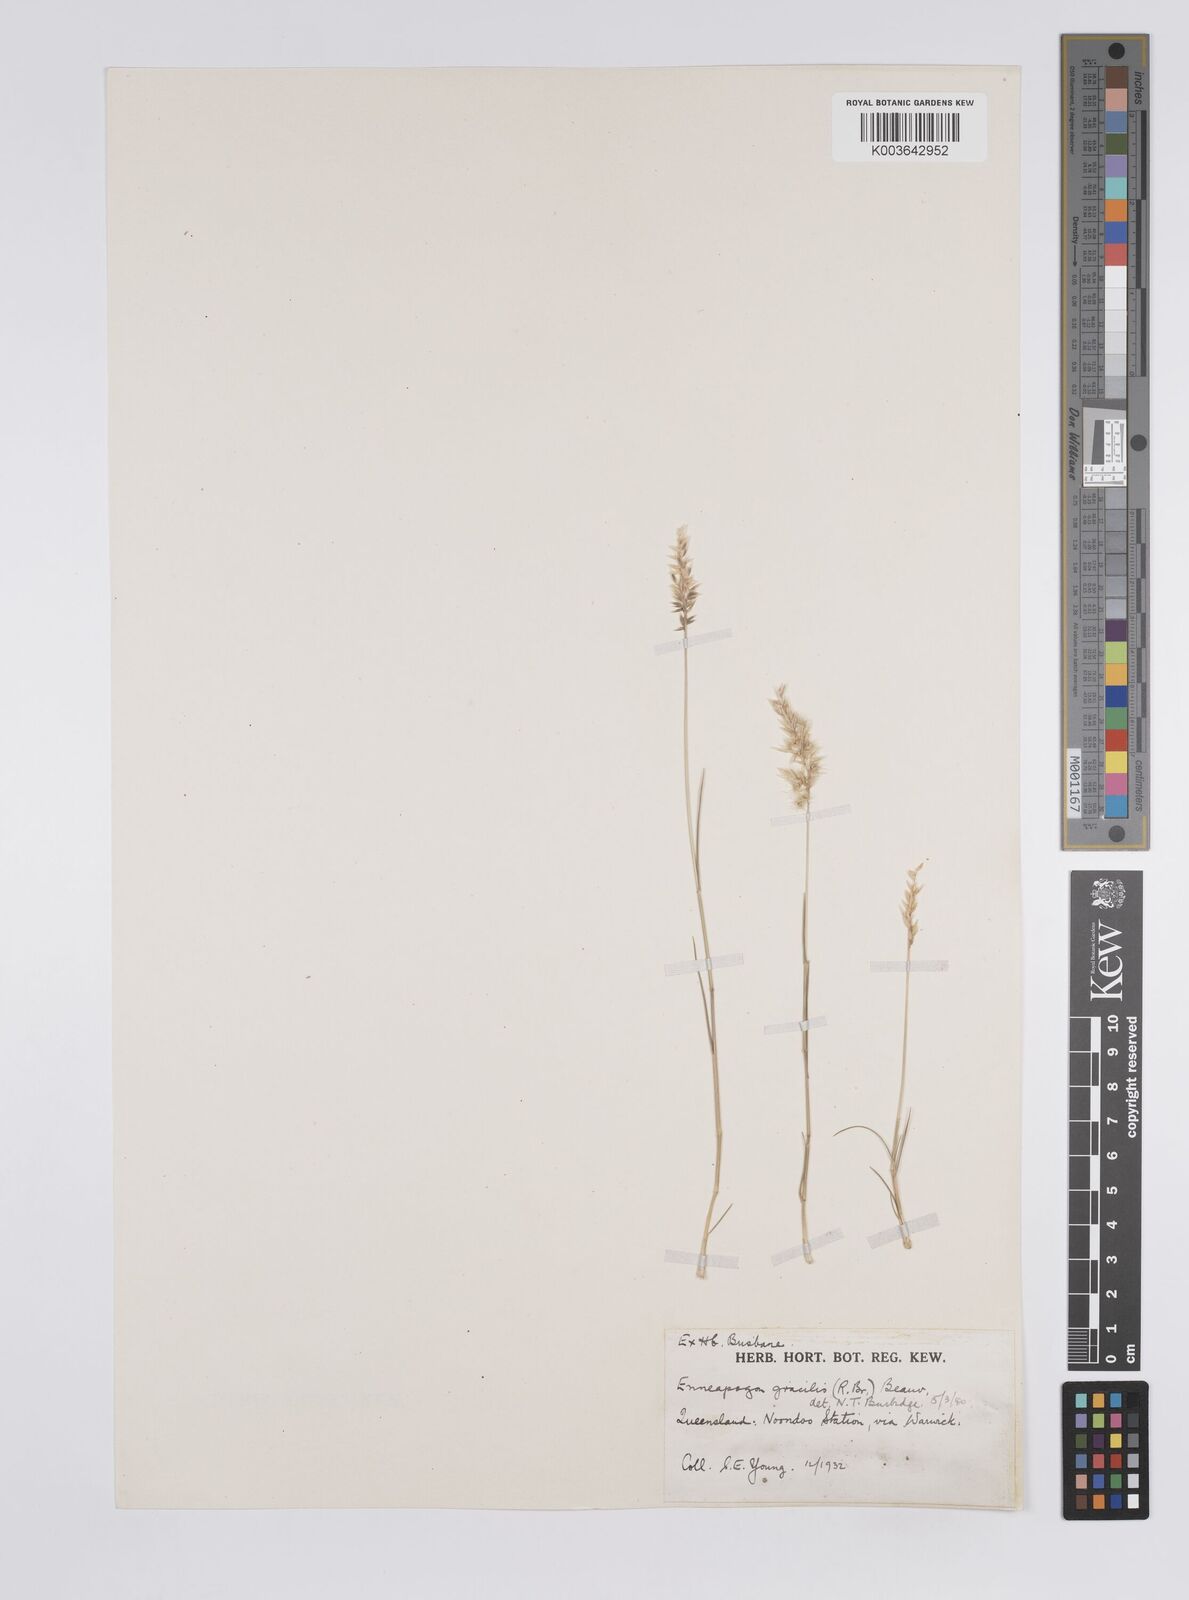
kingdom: Plantae
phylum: Tracheophyta
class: Liliopsida
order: Poales
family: Poaceae
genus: Enneapogon
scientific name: Enneapogon gracilis
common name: Slender bottle-washers
